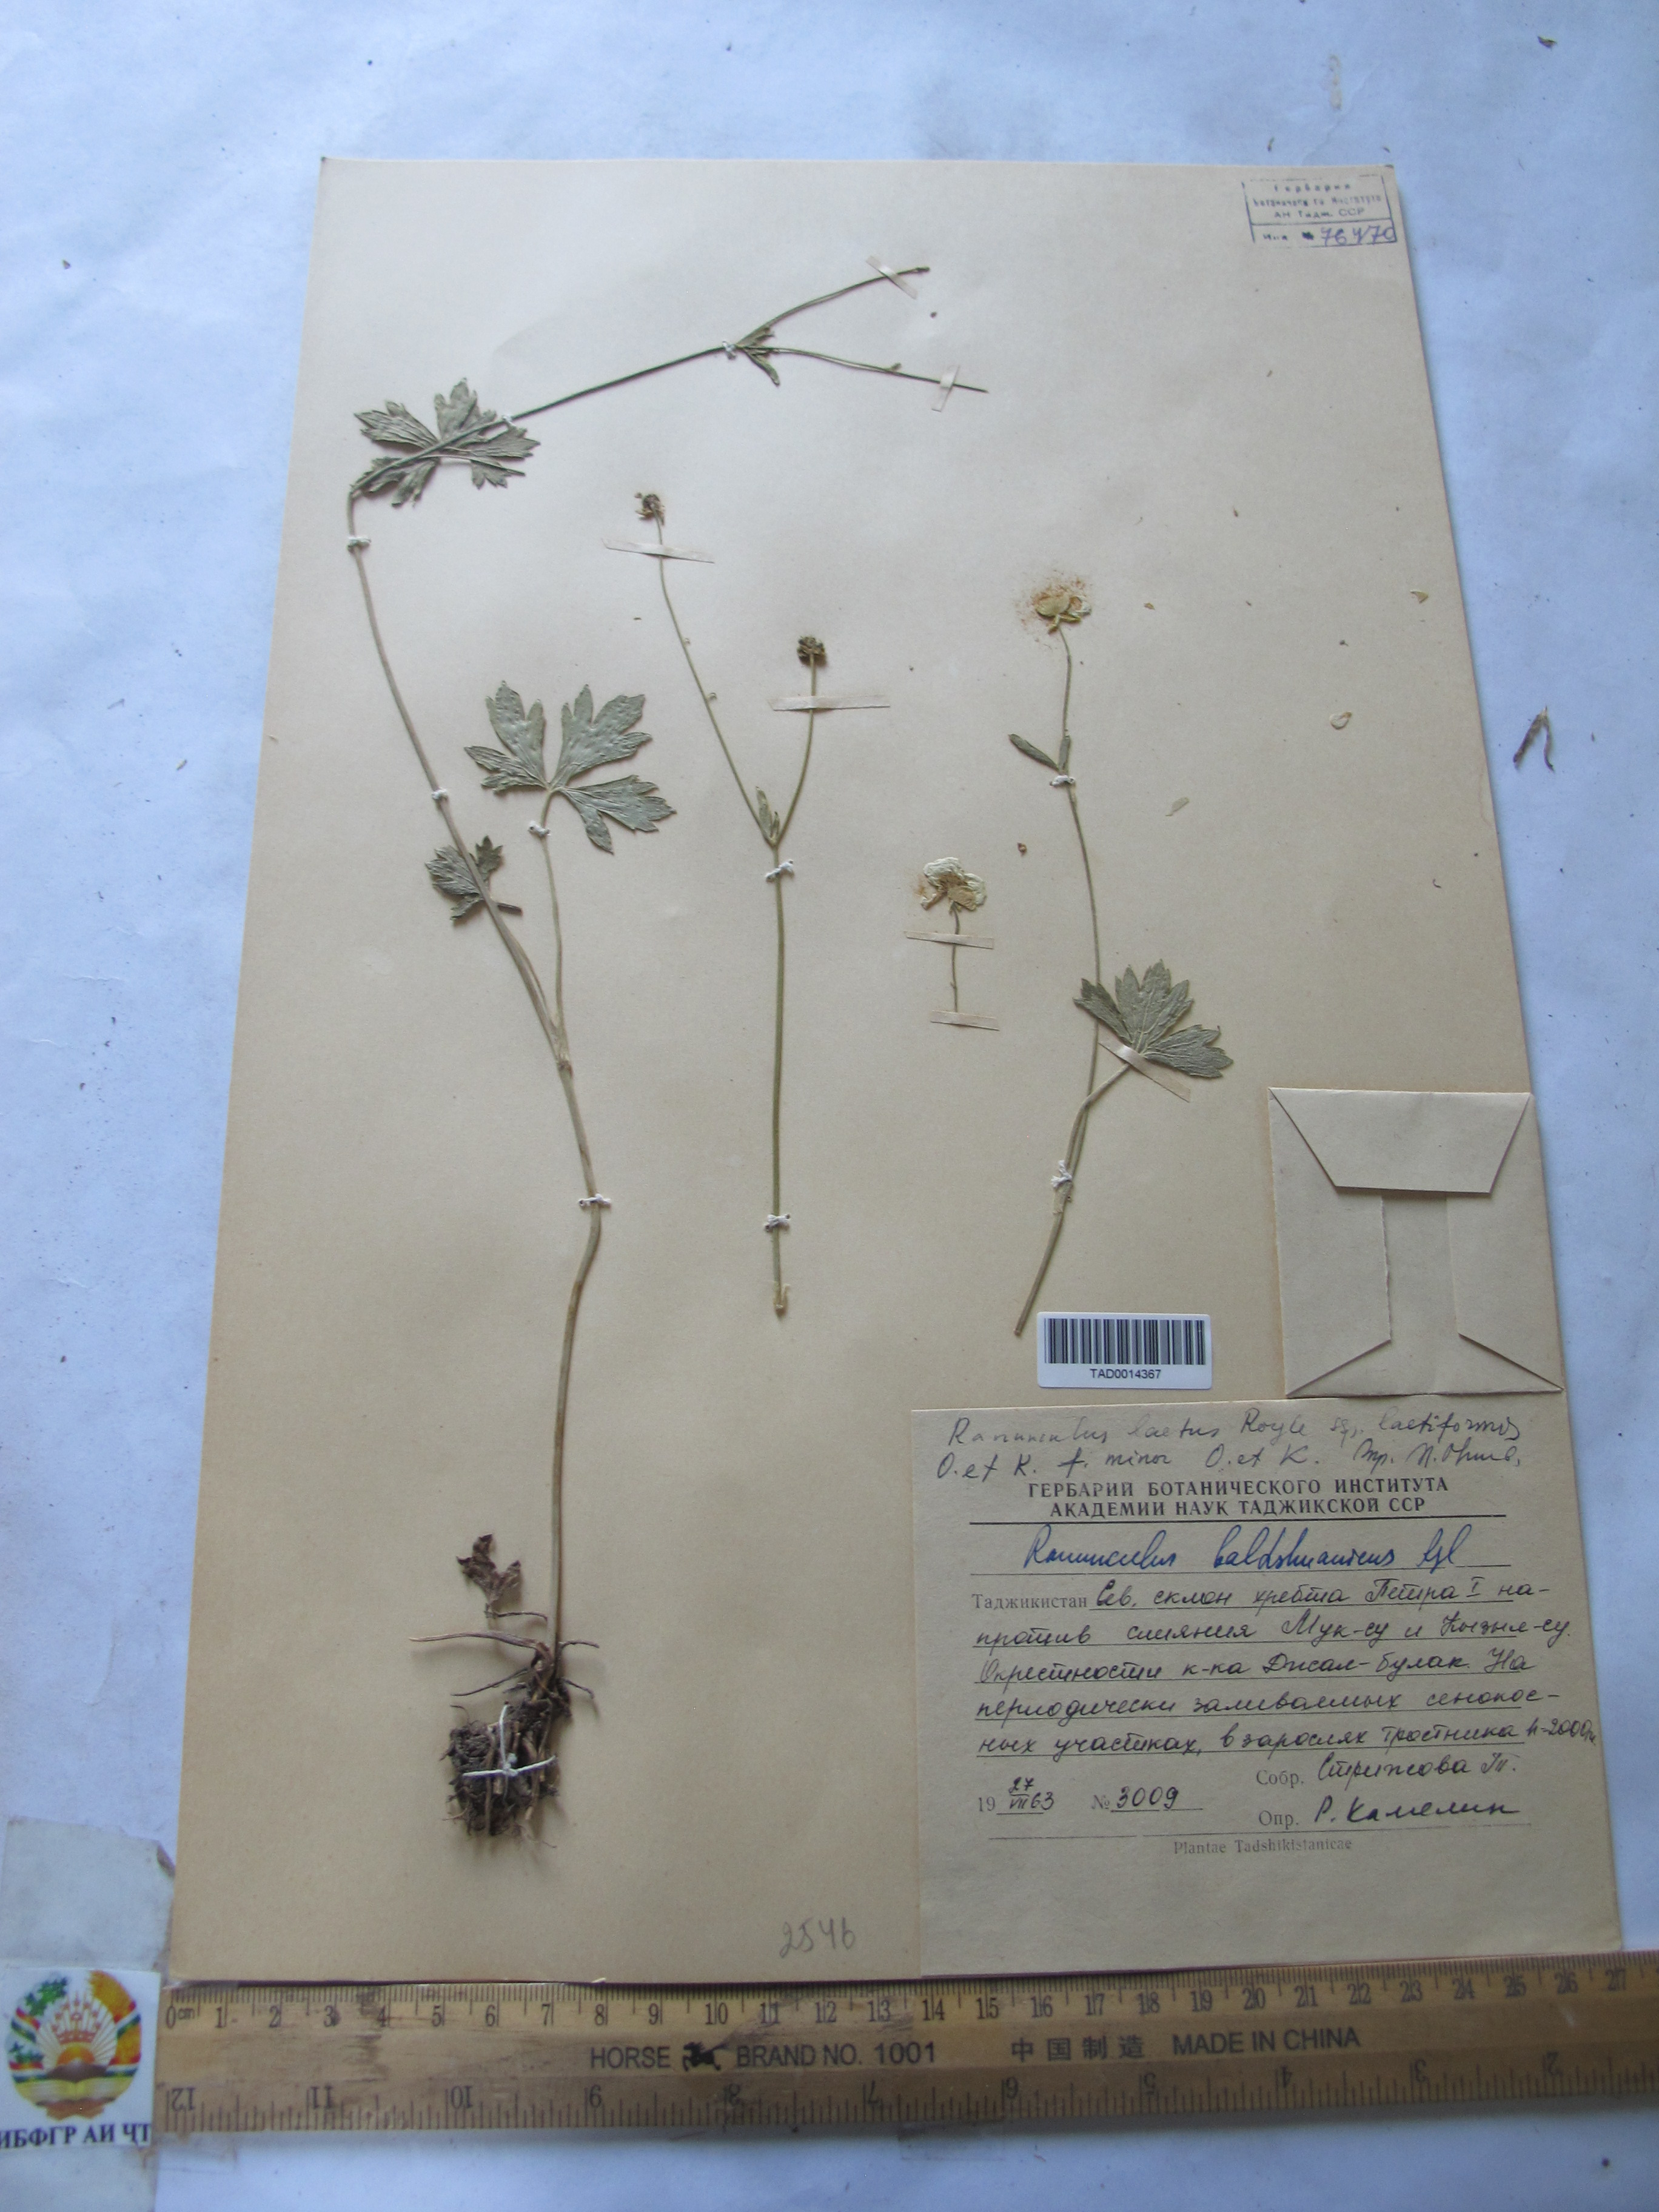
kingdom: Plantae
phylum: Tracheophyta
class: Magnoliopsida
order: Ranunculales
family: Ranunculaceae
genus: Ranunculus
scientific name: Ranunculus distans
